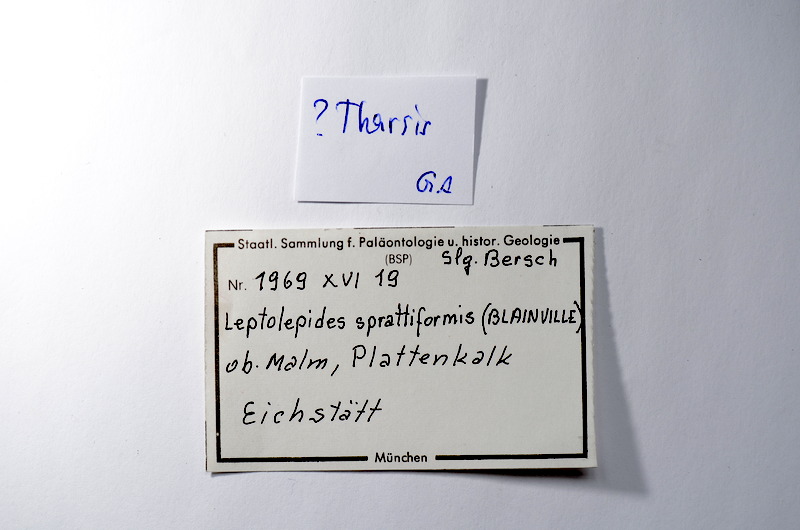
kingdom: Animalia
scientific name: Animalia
